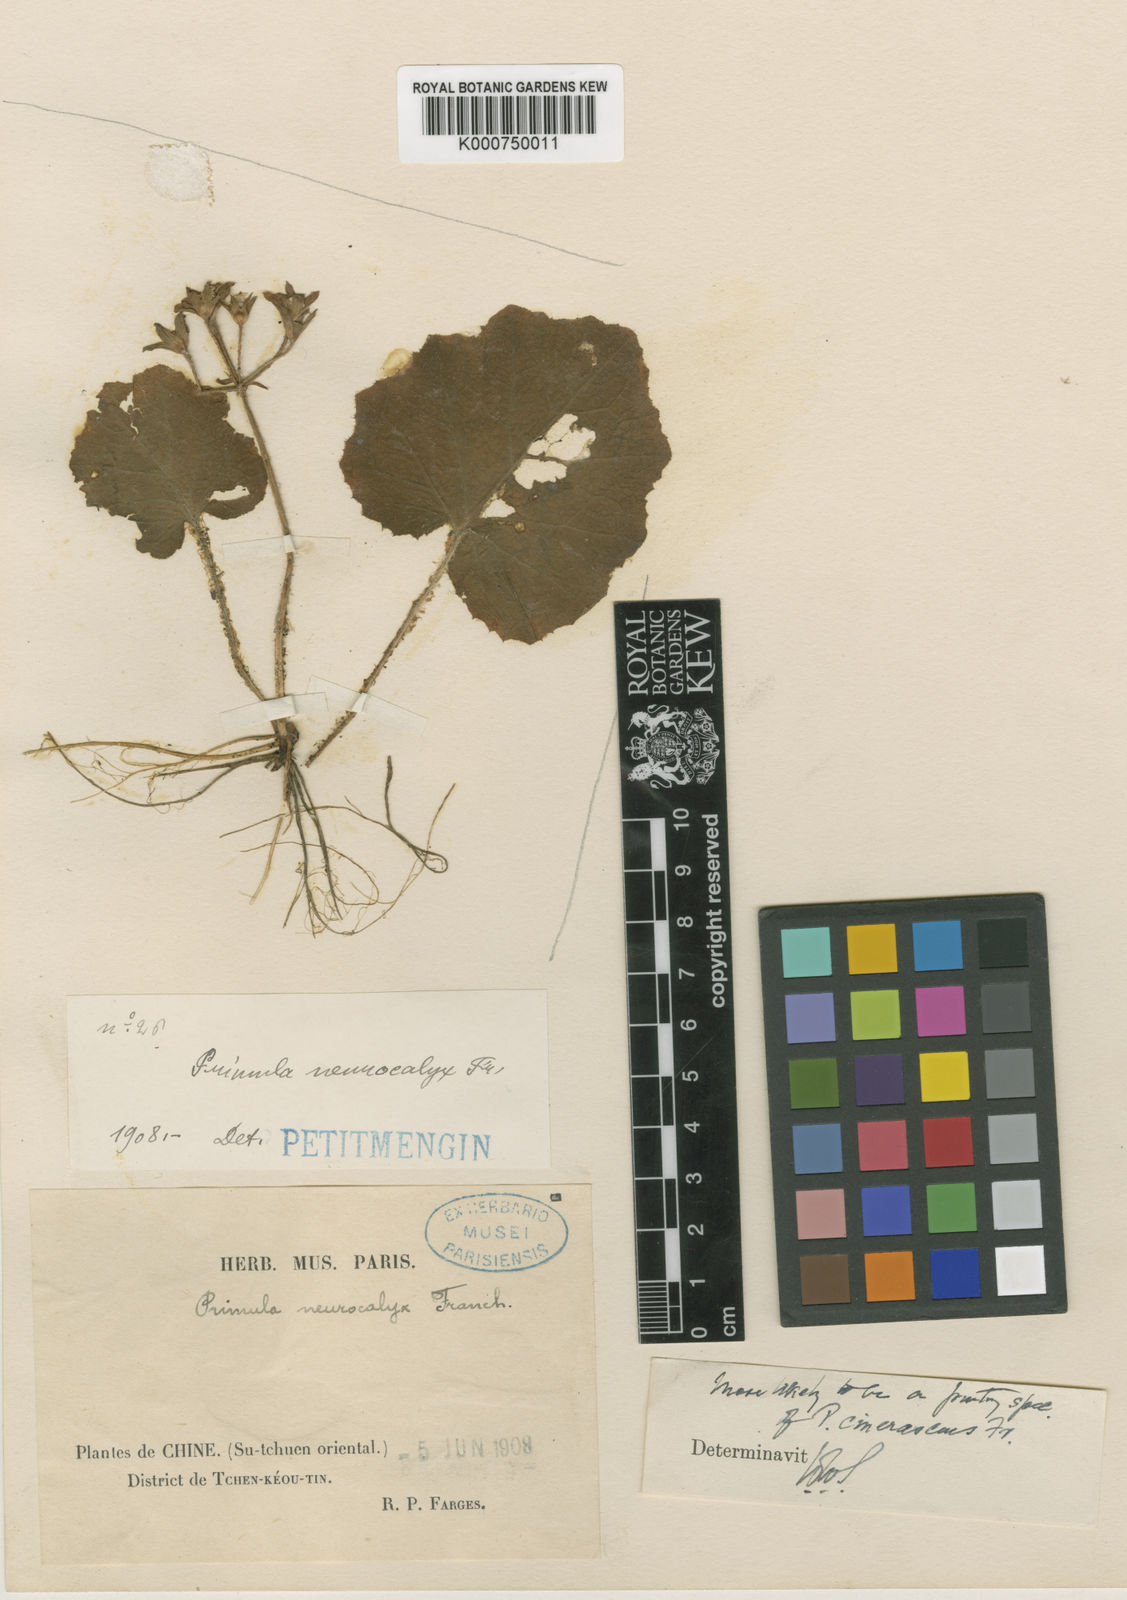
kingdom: Plantae
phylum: Tracheophyta
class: Magnoliopsida
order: Ericales
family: Primulaceae
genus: Primula
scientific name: Primula neurocalyx
